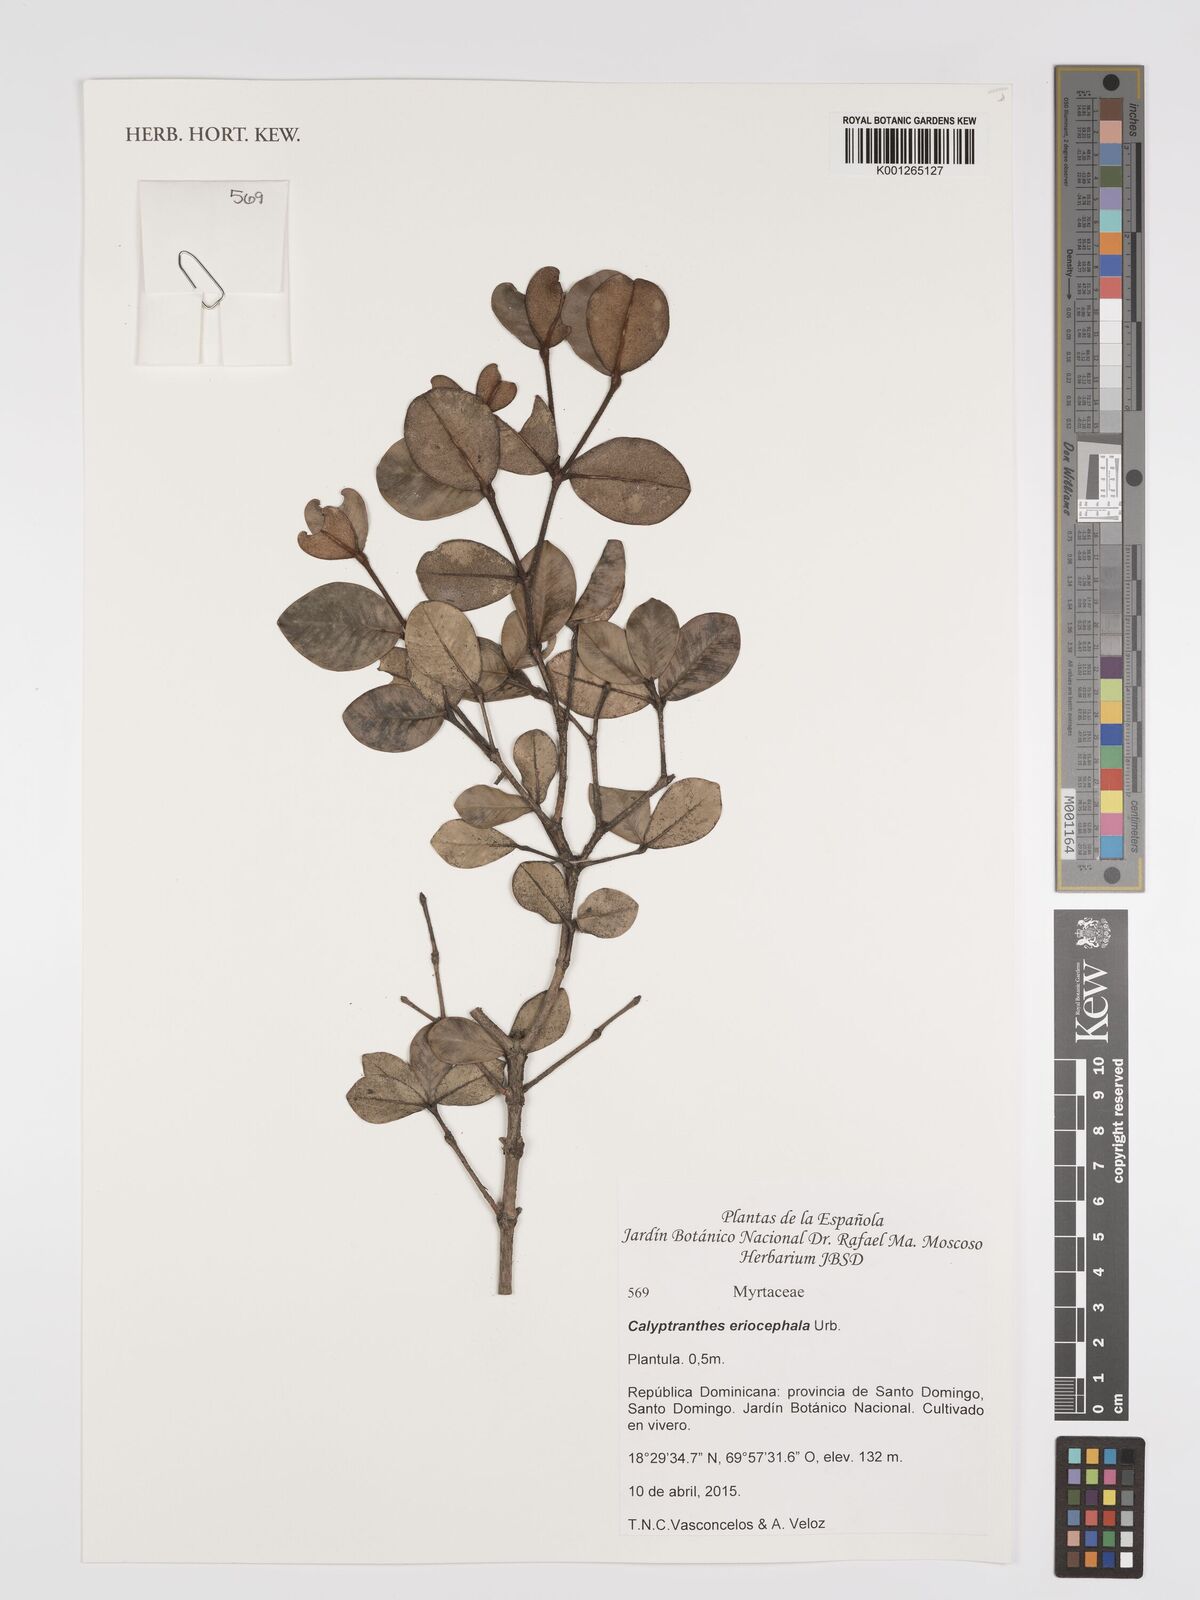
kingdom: Plantae
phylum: Tracheophyta
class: Magnoliopsida
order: Myrtales
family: Myrtaceae
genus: Syzygium
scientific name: Syzygium cumini
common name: Java plum
